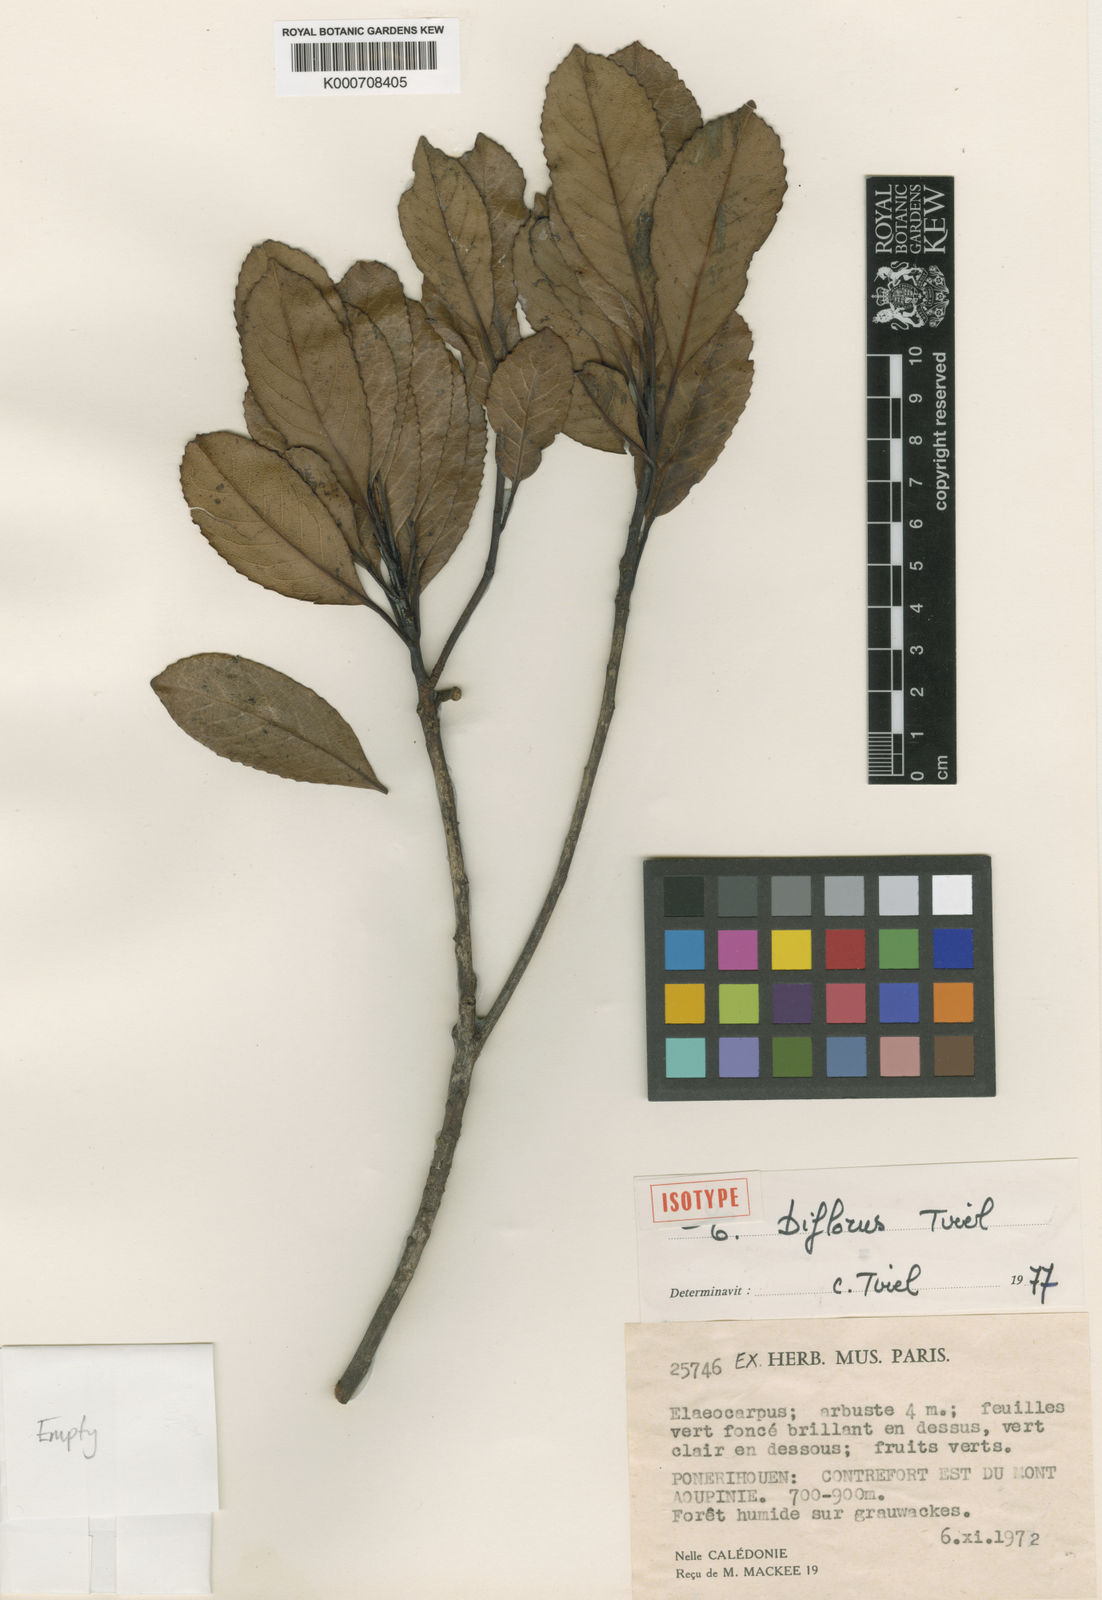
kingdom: Plantae
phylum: Tracheophyta
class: Magnoliopsida
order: Oxalidales
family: Elaeocarpaceae
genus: Elaeocarpus
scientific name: Elaeocarpus biflorus
